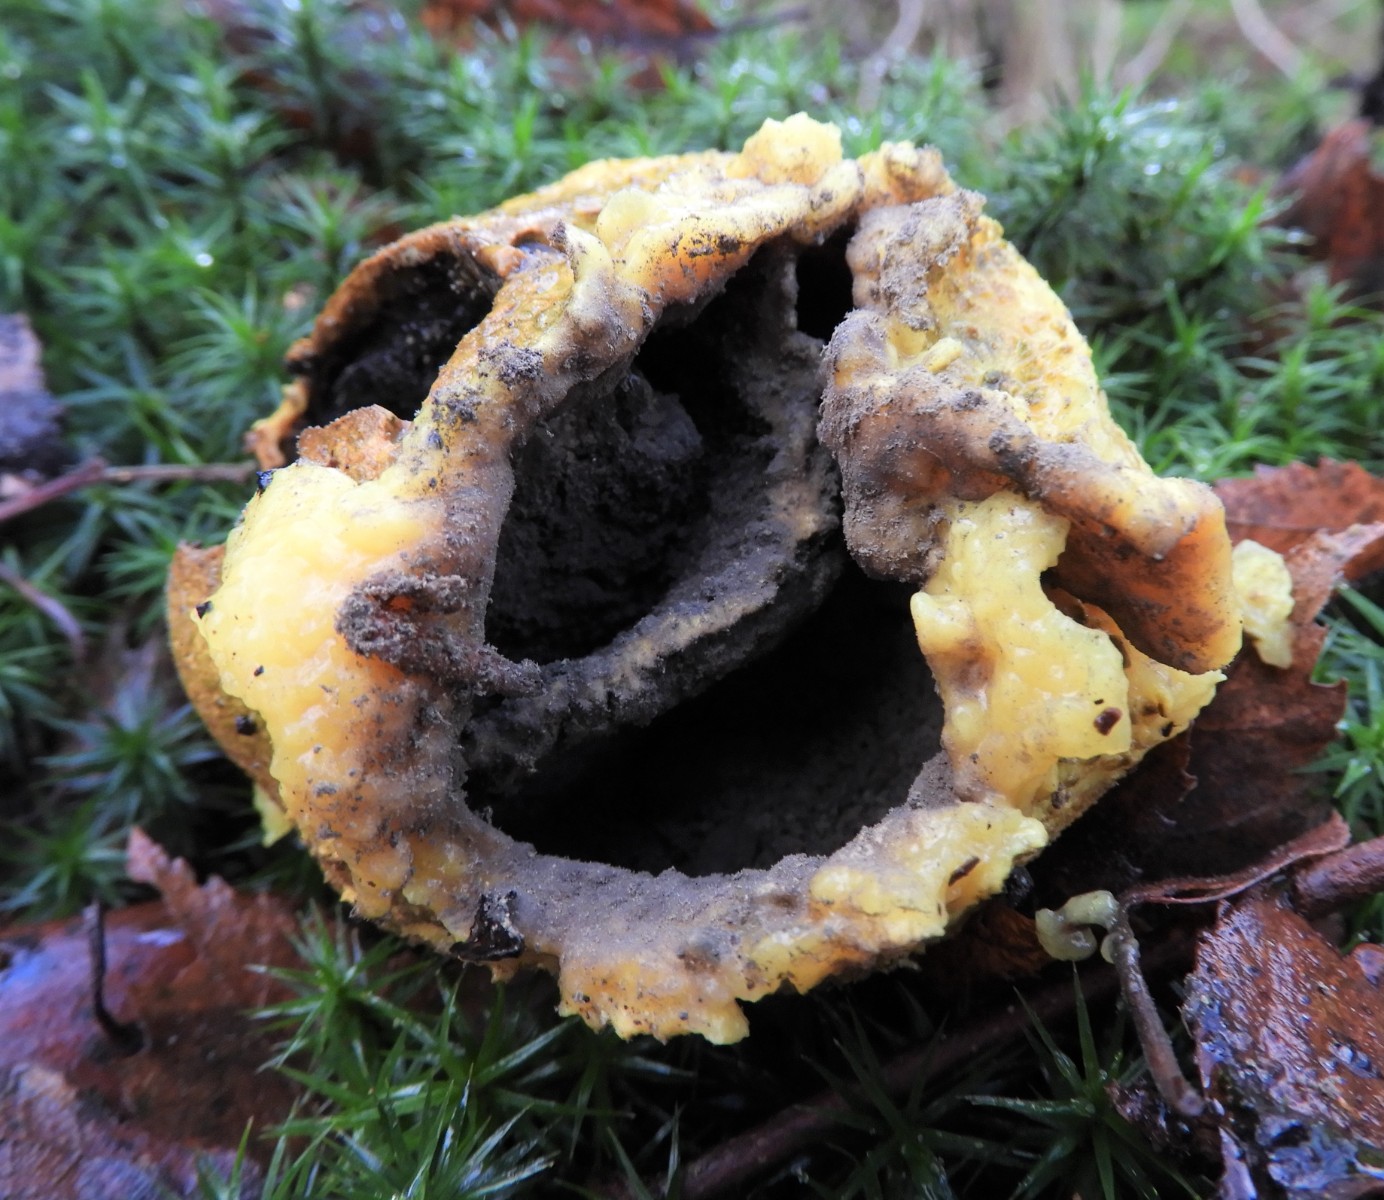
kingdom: Fungi
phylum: Basidiomycota
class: Agaricomycetes
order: Boletales
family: Sclerodermataceae
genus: Scleroderma
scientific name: Scleroderma citrinum
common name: almindelig bruskbold
